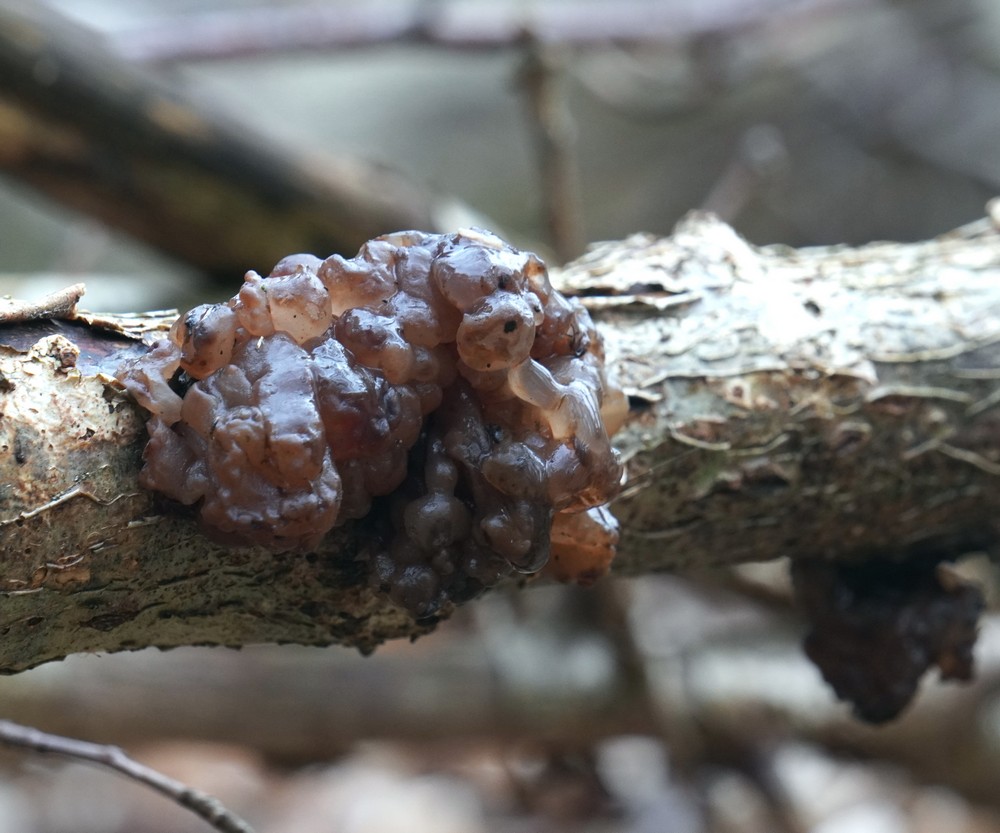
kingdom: Fungi
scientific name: Fungi
